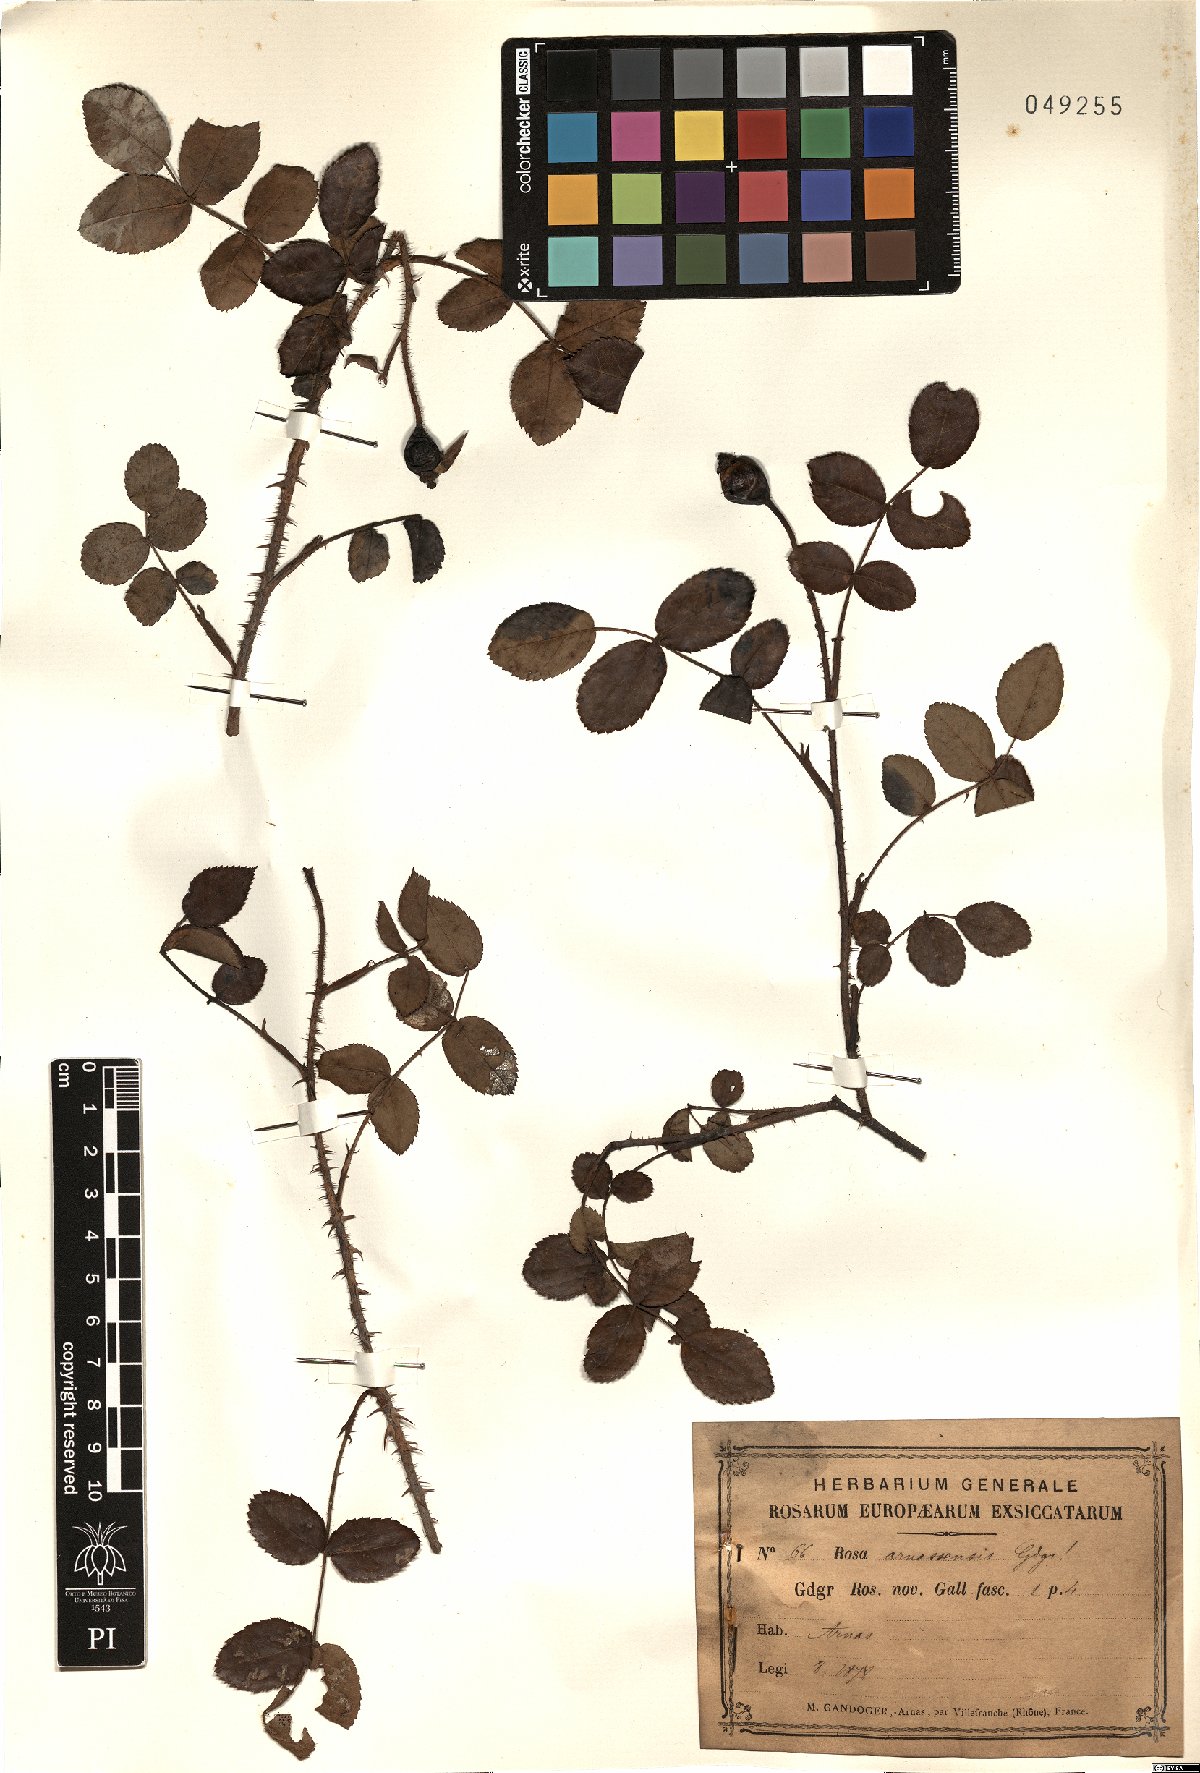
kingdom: Plantae
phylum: Tracheophyta
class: Magnoliopsida
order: Rosales
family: Rosaceae
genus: Rosa
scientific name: Rosa armassensis
